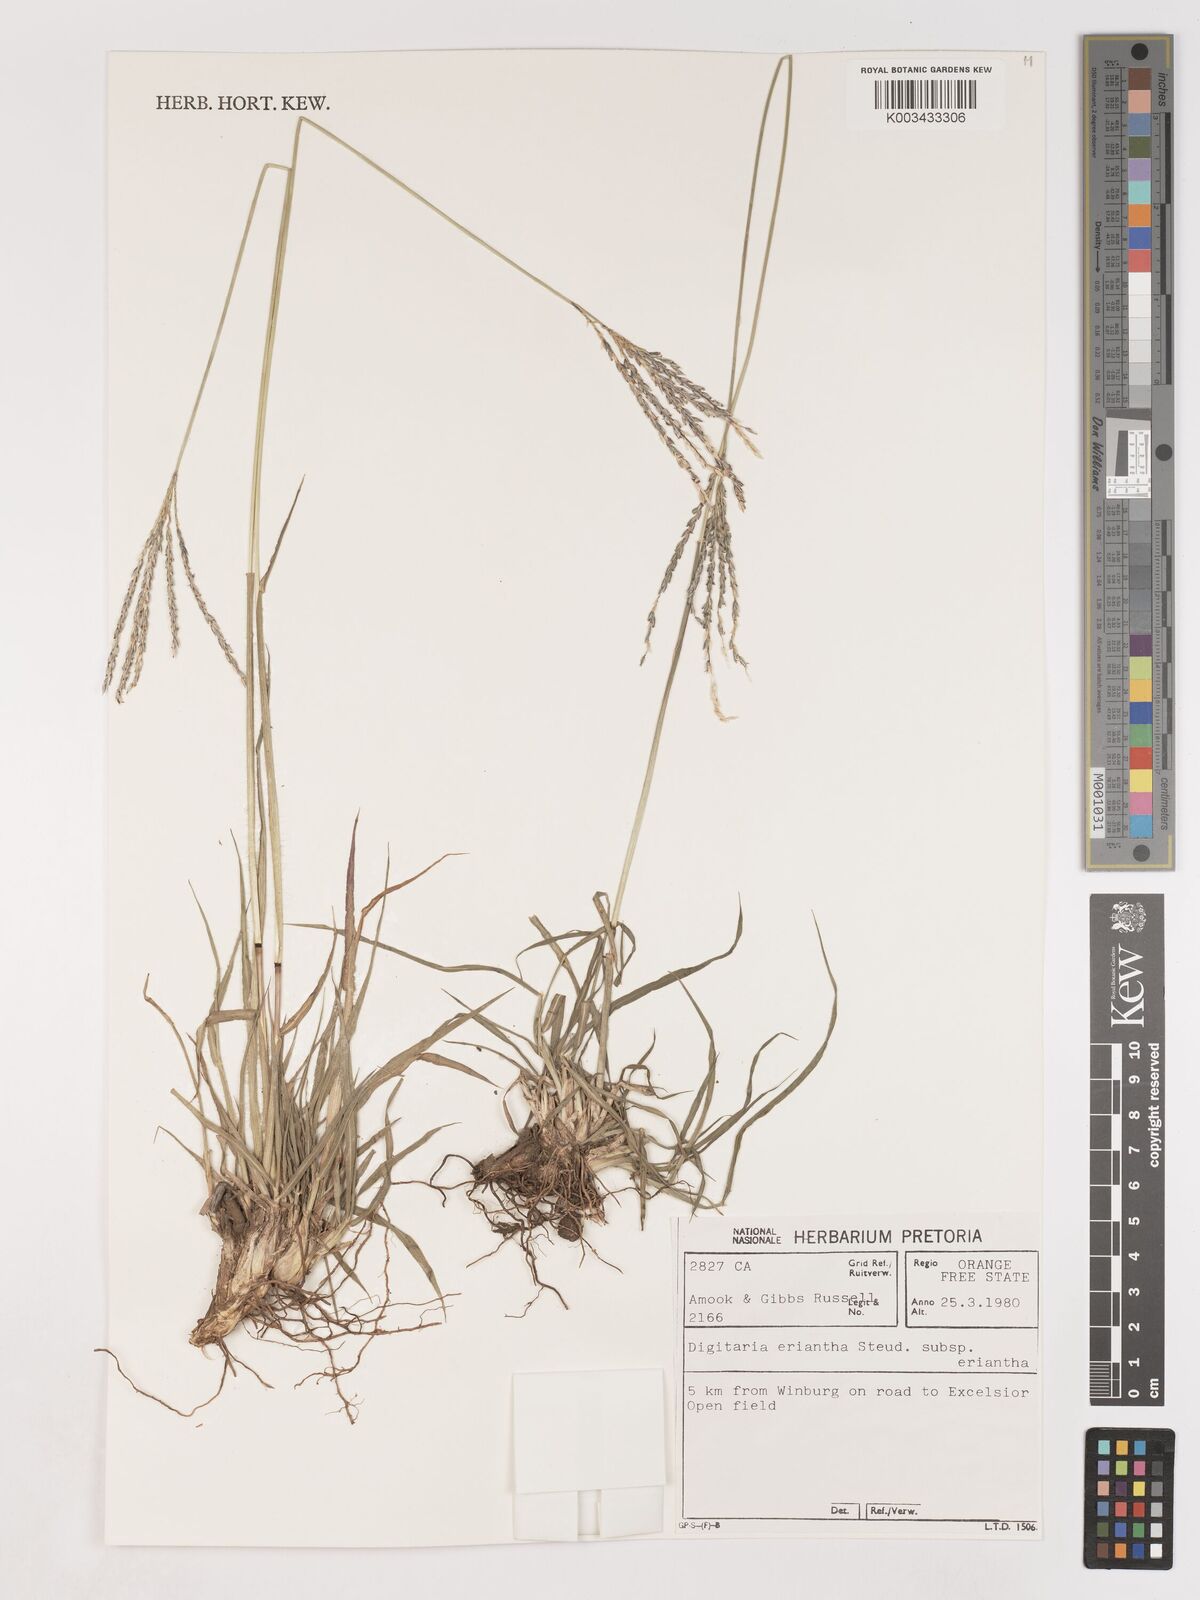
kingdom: Plantae
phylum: Tracheophyta
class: Liliopsida
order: Poales
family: Poaceae
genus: Digitaria
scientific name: Digitaria eriantha
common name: Digitgrass
